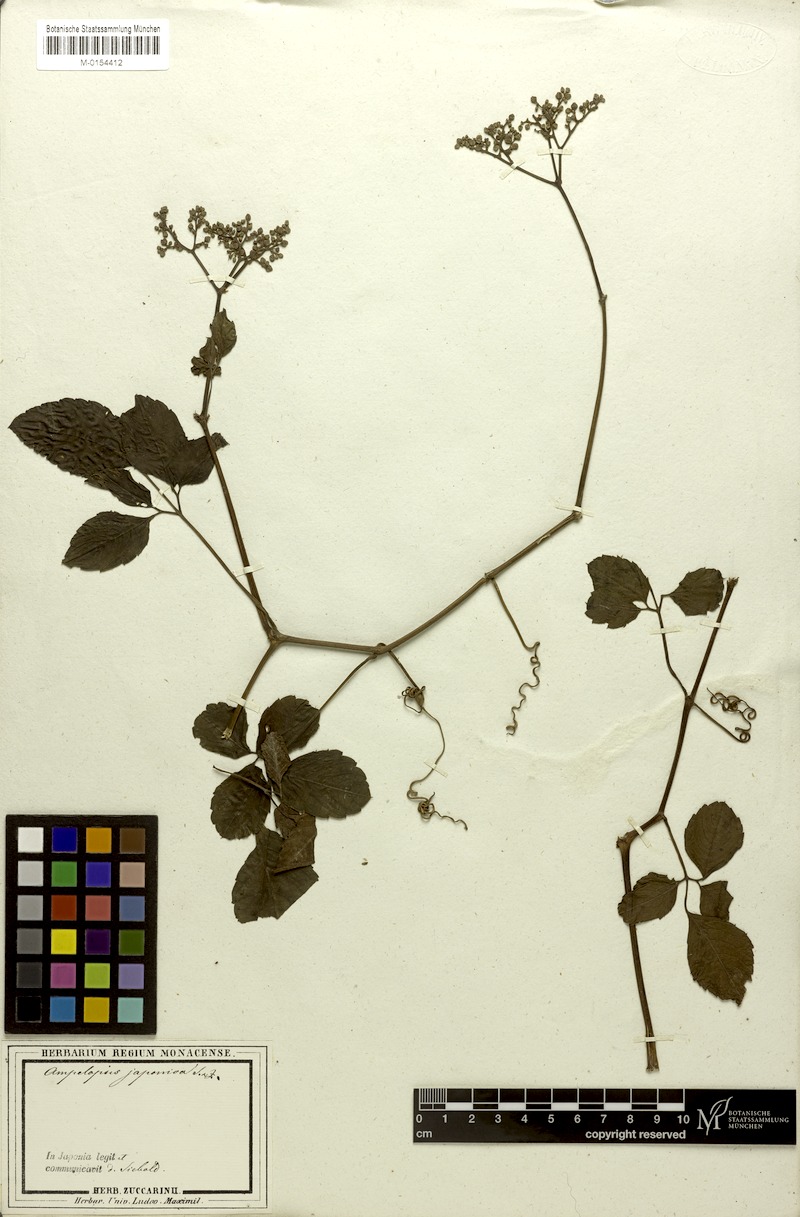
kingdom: Plantae
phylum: Tracheophyta
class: Magnoliopsida
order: Vitales
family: Vitaceae
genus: Causonis
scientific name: Causonis japonica
